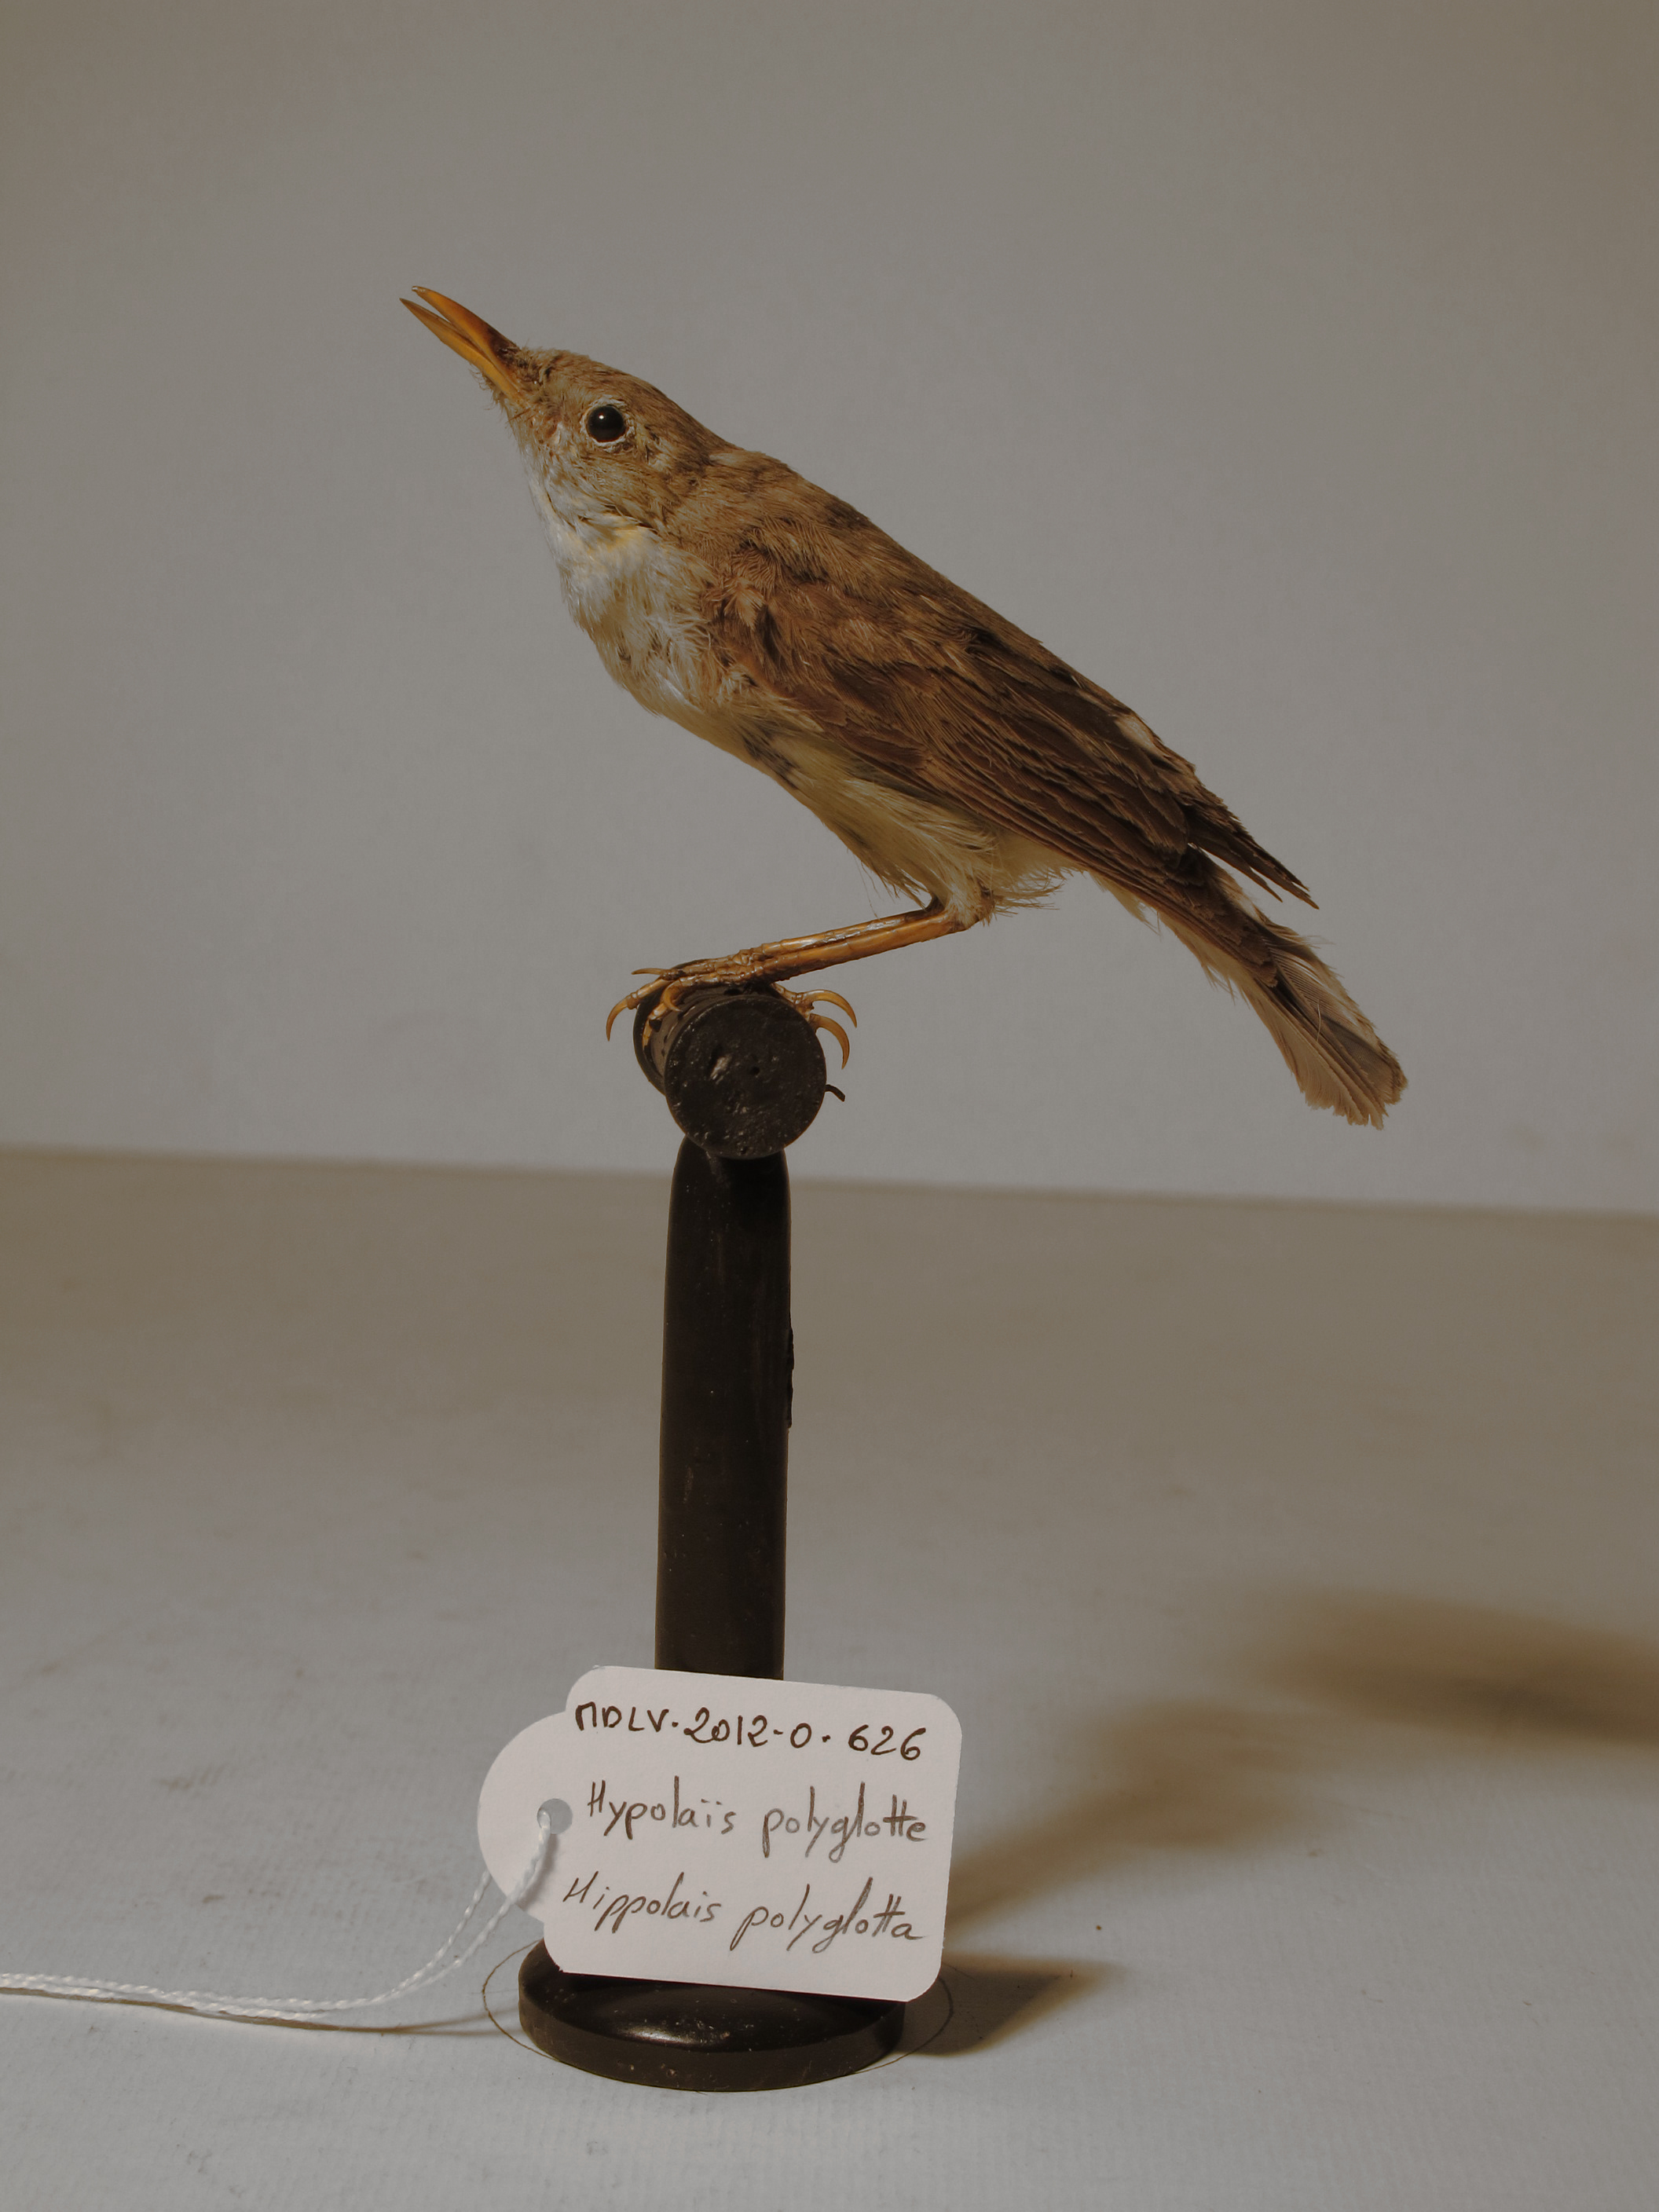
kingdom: Animalia
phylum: Chordata
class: Aves
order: Passeriformes
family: Acrocephalidae
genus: Hippolais
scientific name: Hippolais polyglotta
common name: Melodious Warbler
